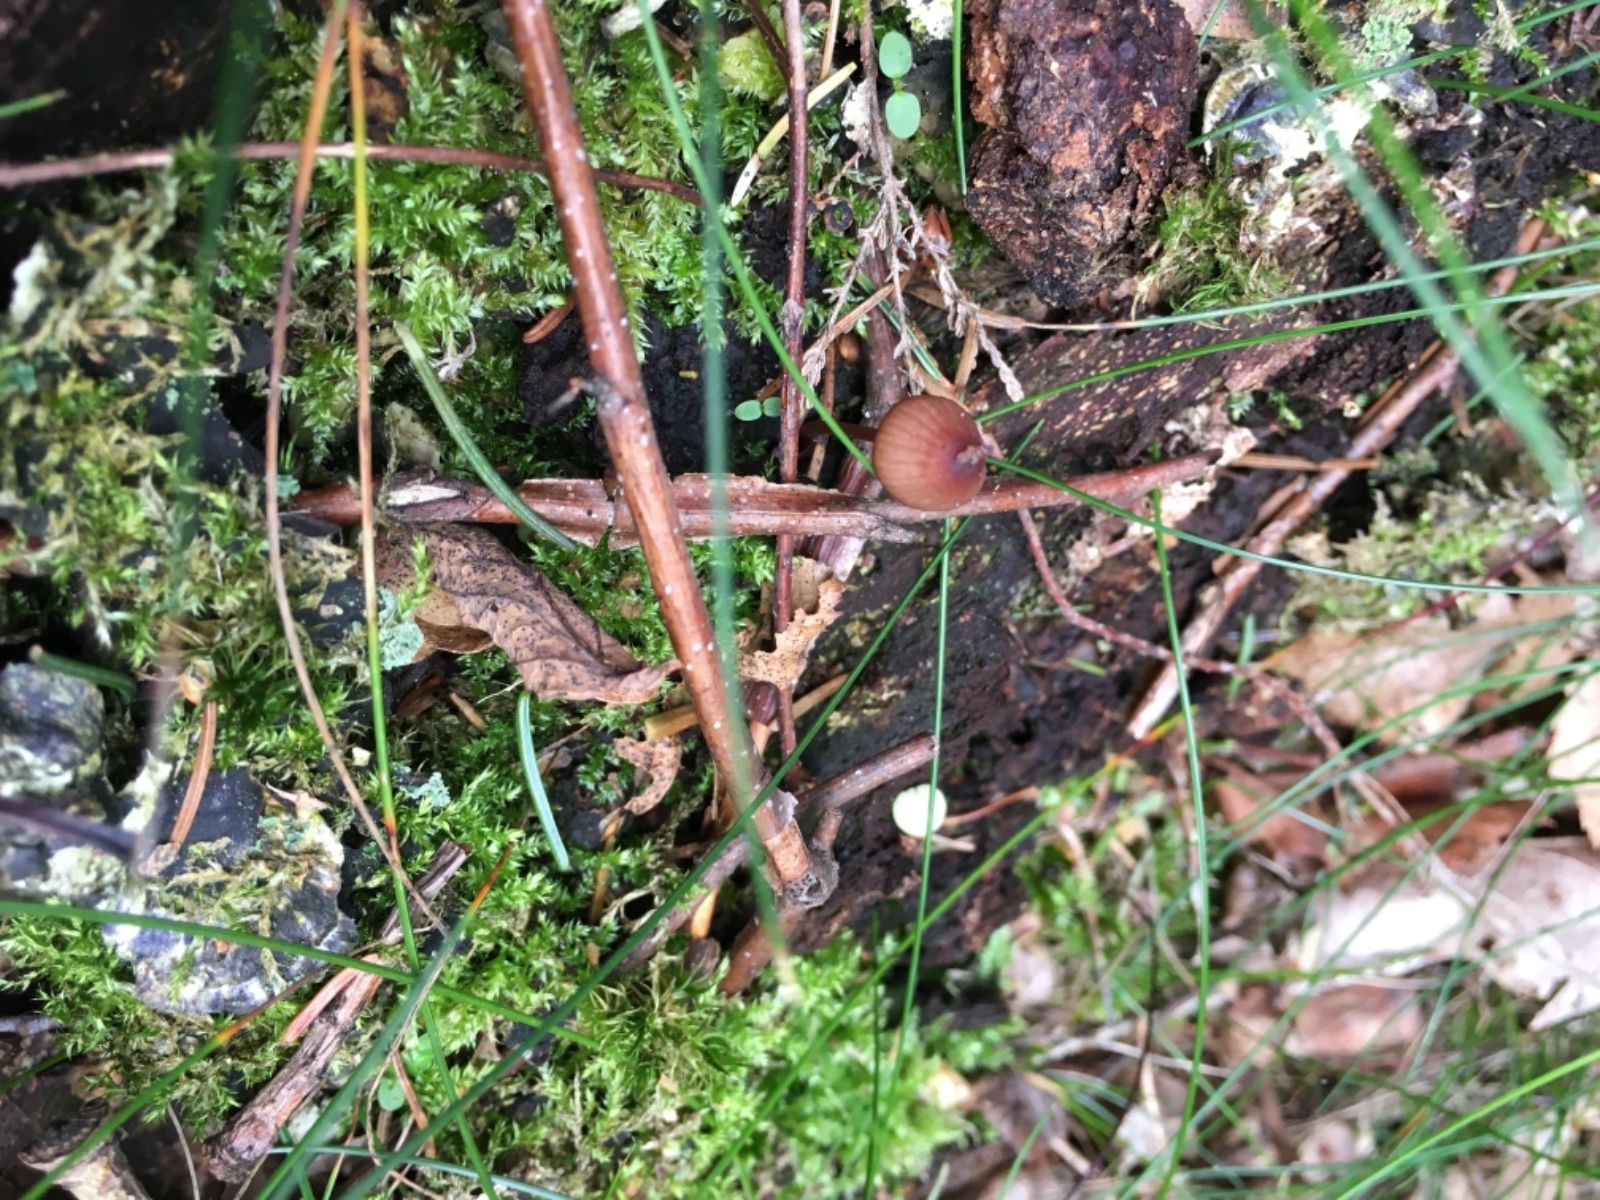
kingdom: Fungi
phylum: Basidiomycota
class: Agaricomycetes
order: Agaricales
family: Mycenaceae
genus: Mycena
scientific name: Mycena sanguinolenta
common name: rødmælket huesvamp
